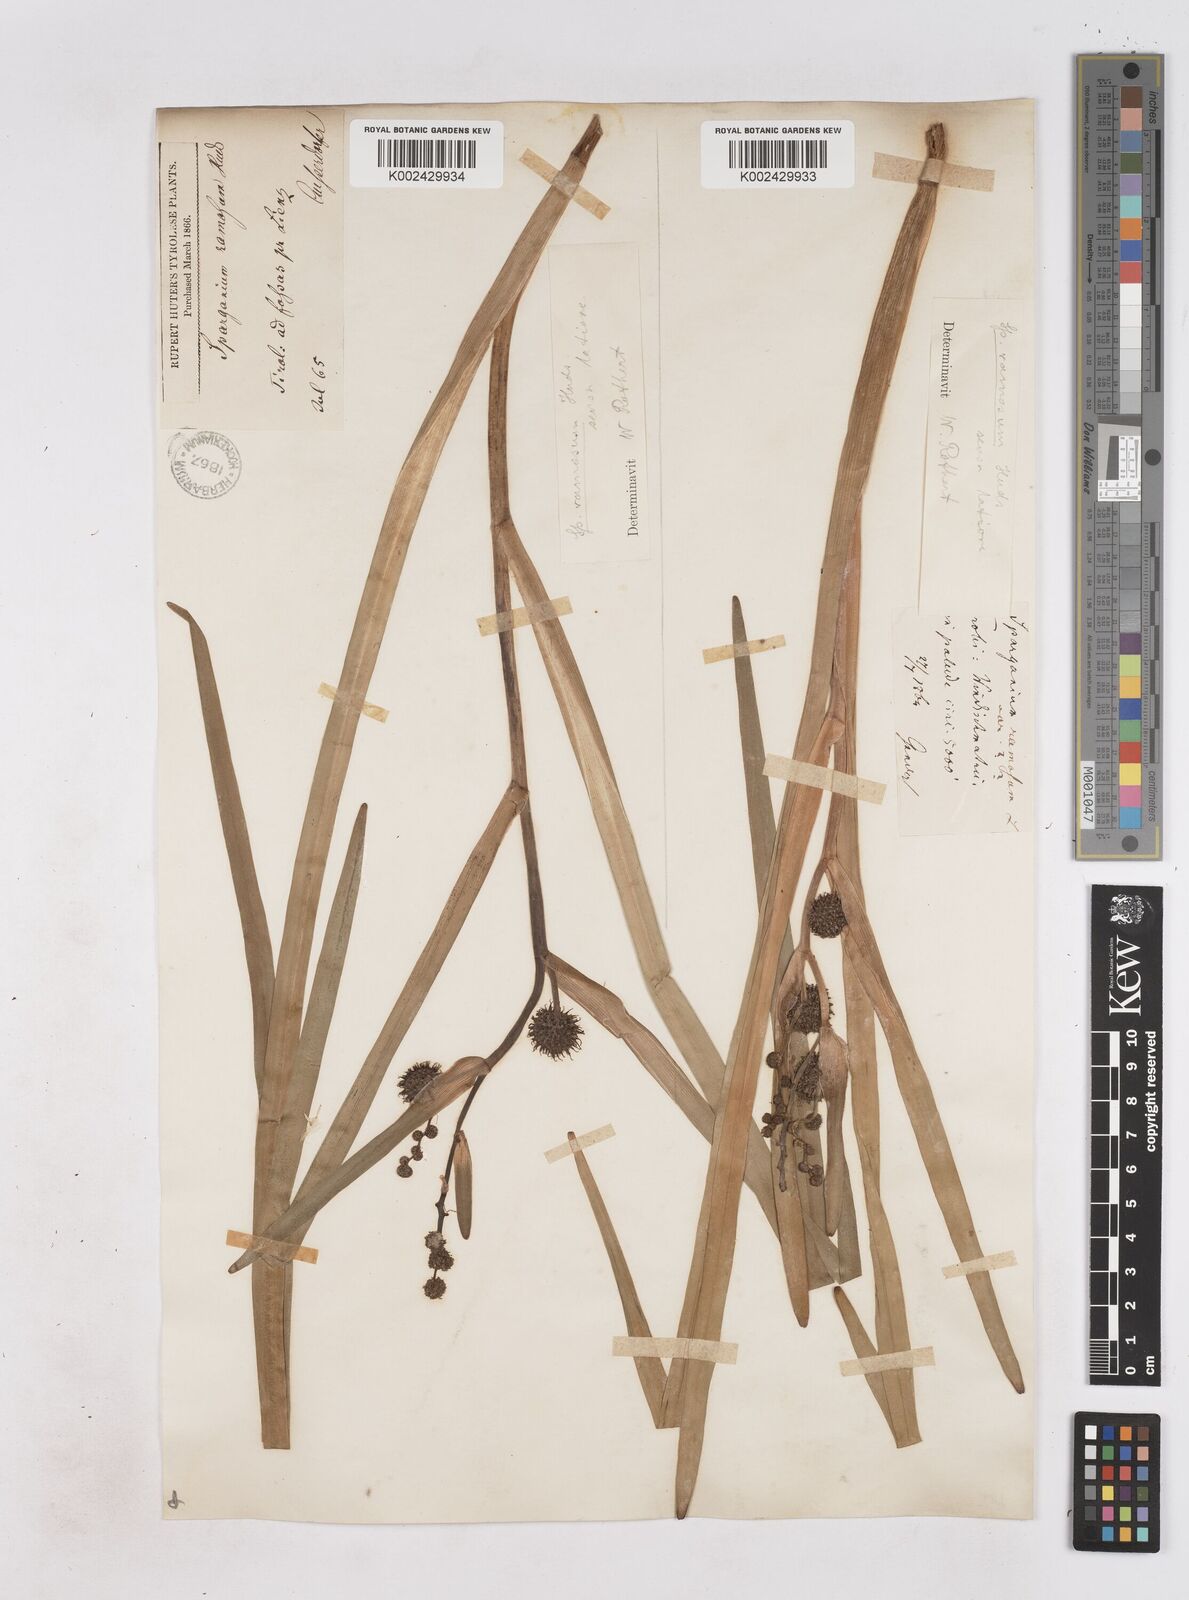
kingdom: Plantae
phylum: Tracheophyta
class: Liliopsida
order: Poales
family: Typhaceae
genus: Sparganium
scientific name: Sparganium erectum
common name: Branched bur-reed
